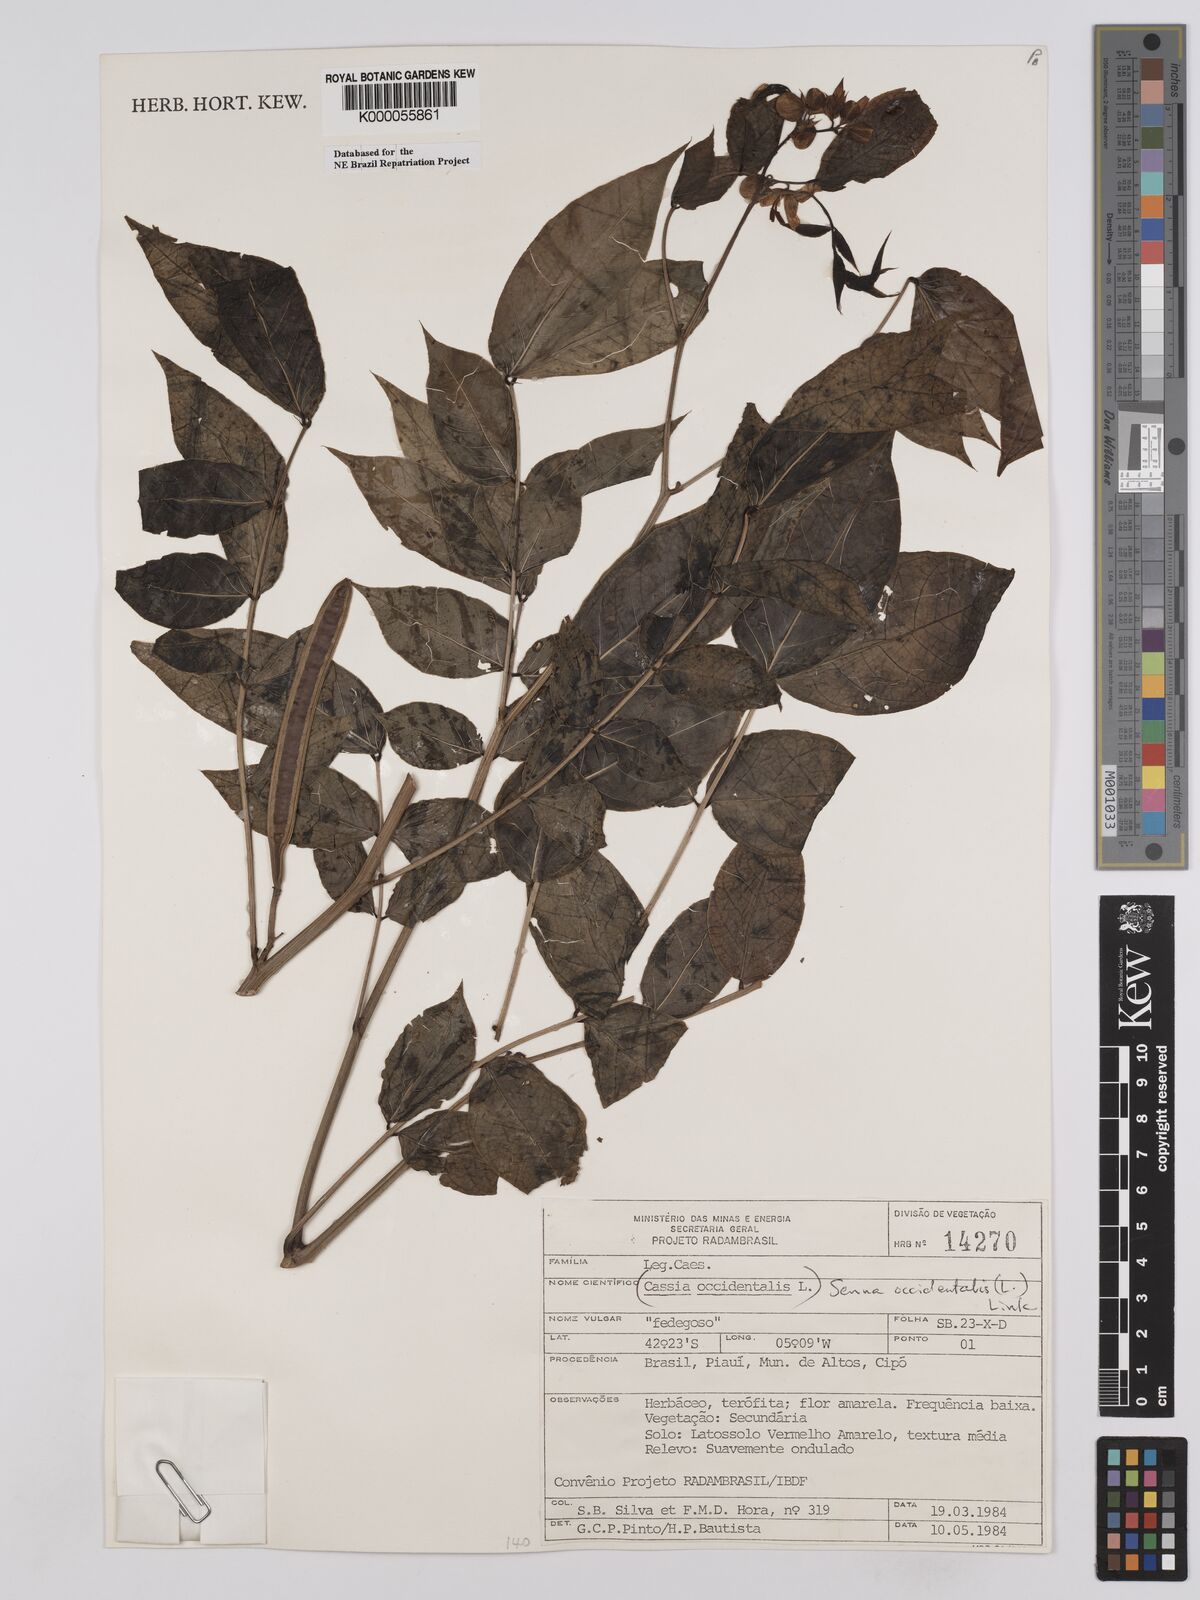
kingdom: Plantae
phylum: Tracheophyta
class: Magnoliopsida
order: Fabales
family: Fabaceae
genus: Senna
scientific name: Senna occidentalis
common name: Septicweed
